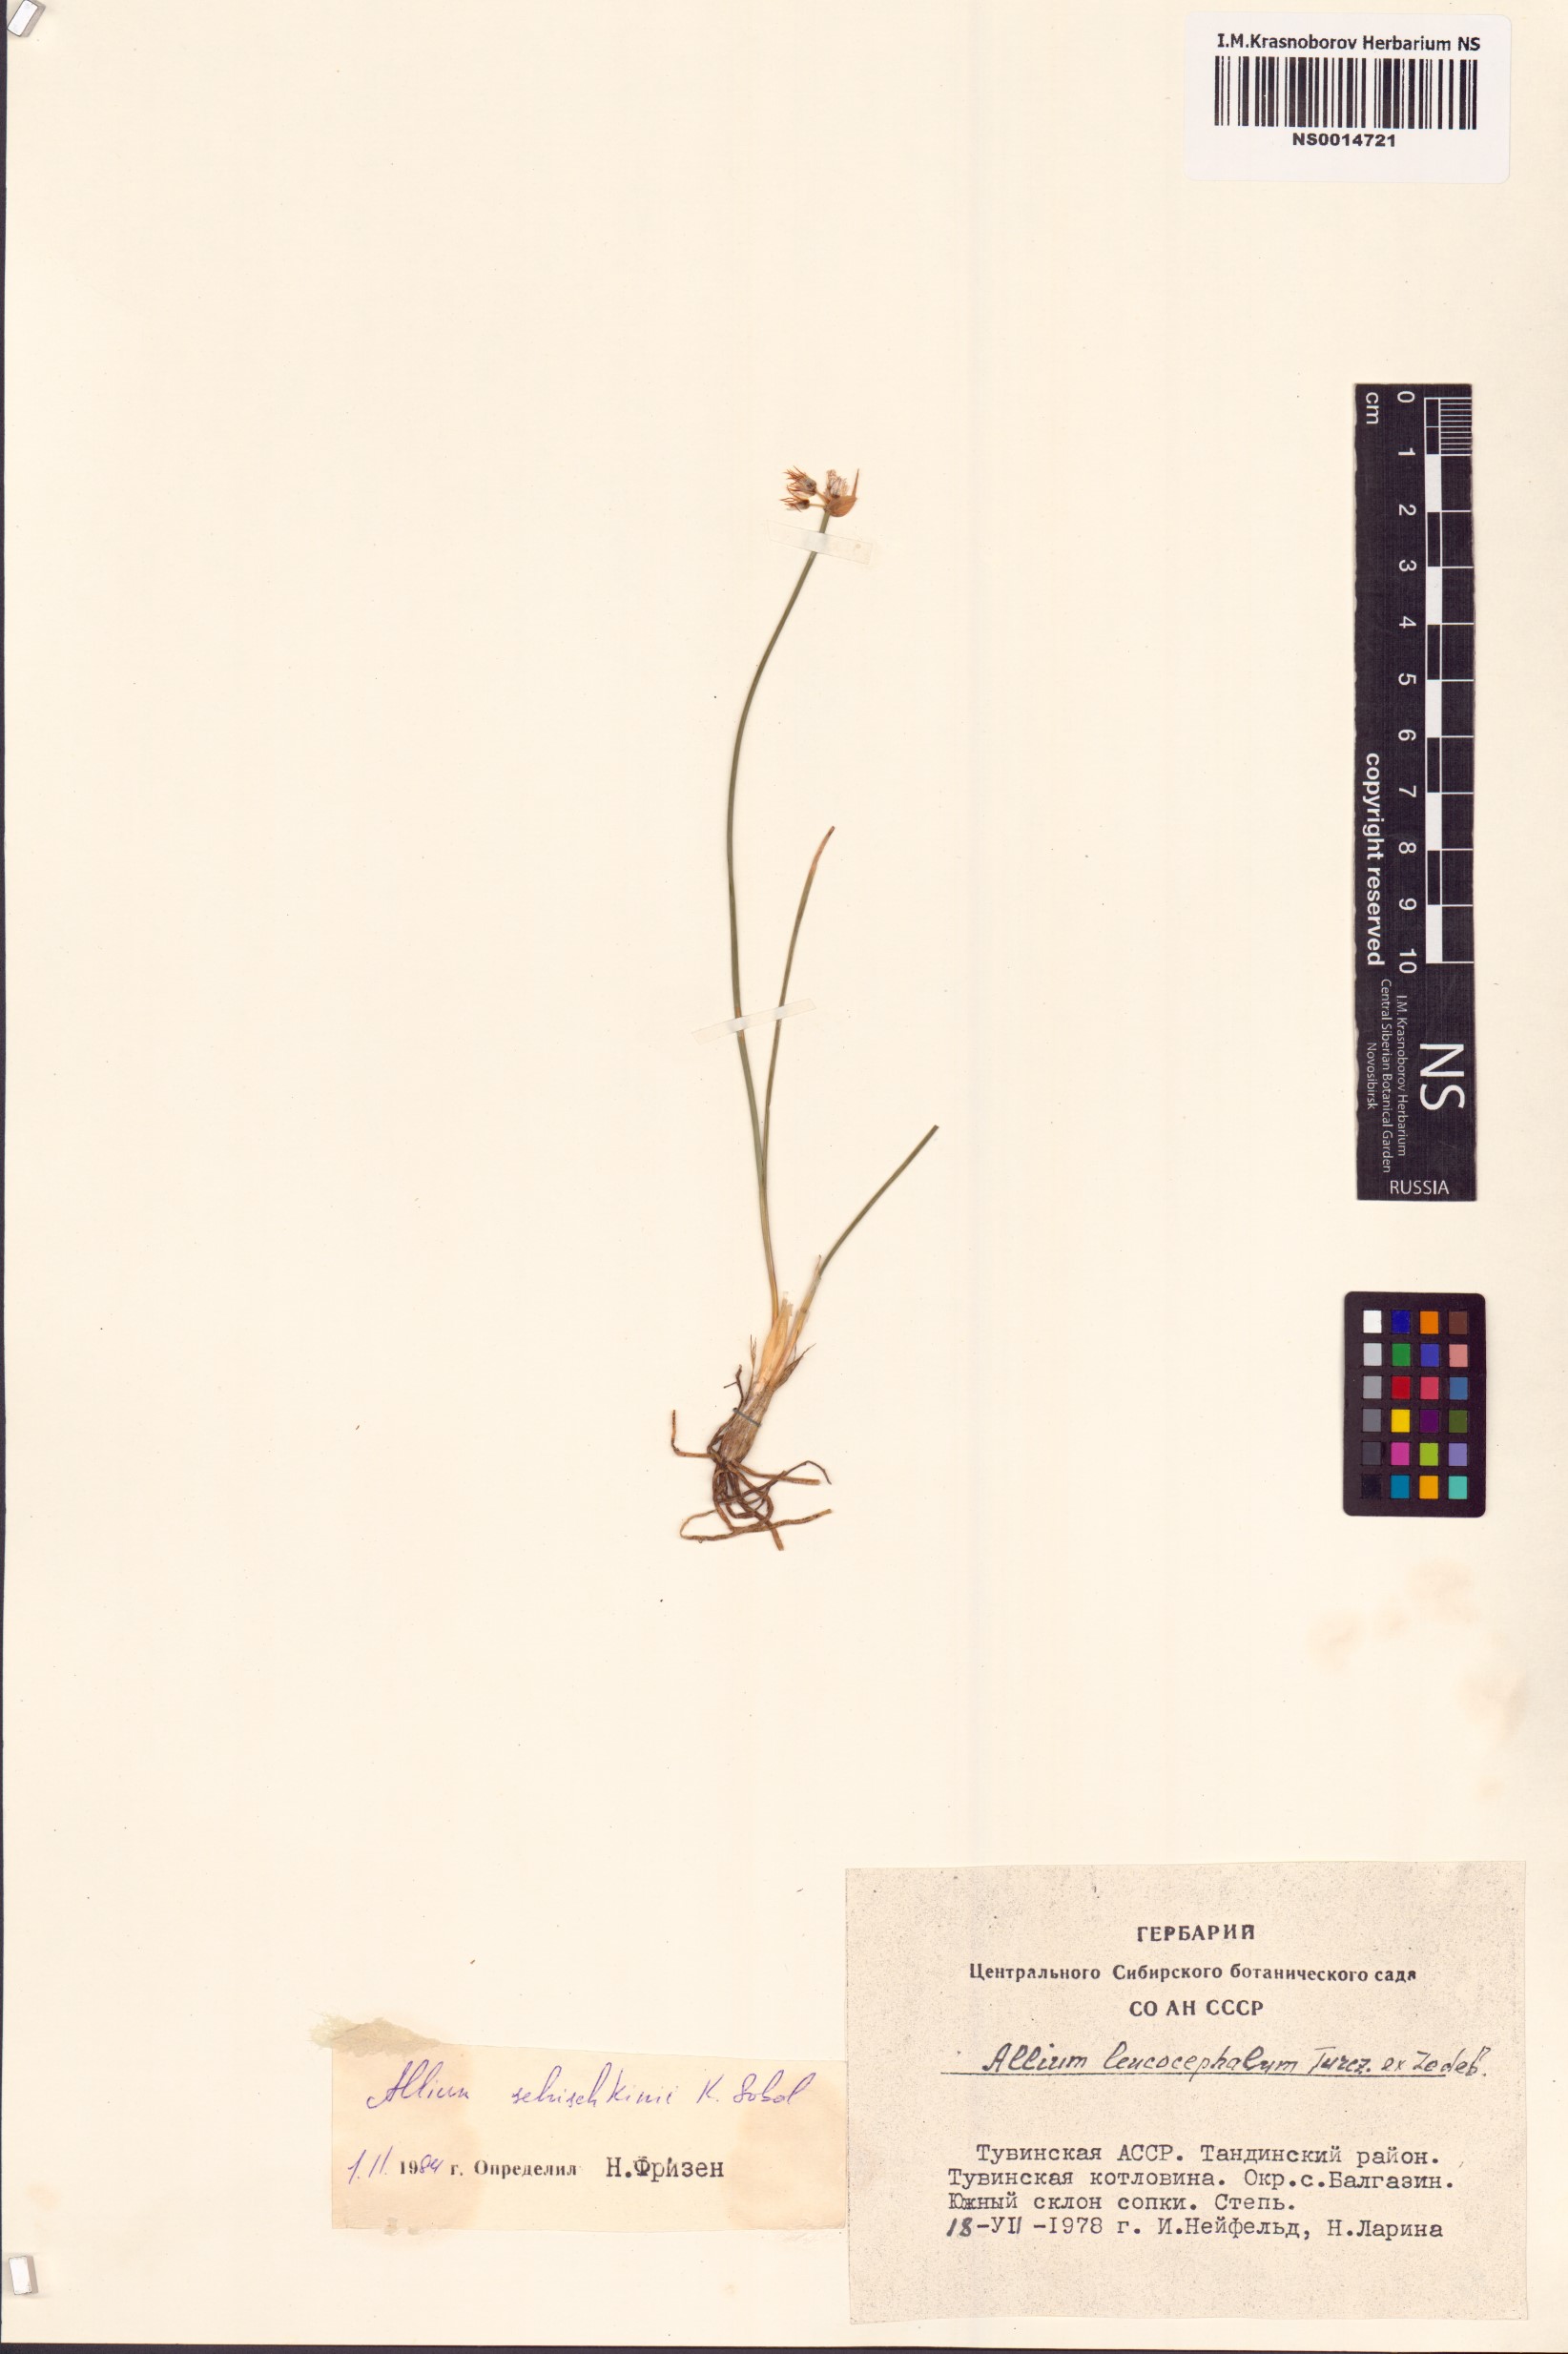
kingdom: Plantae
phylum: Tracheophyta
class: Liliopsida
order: Asparagales
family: Amaryllidaceae
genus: Allium
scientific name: Allium schischkinii
